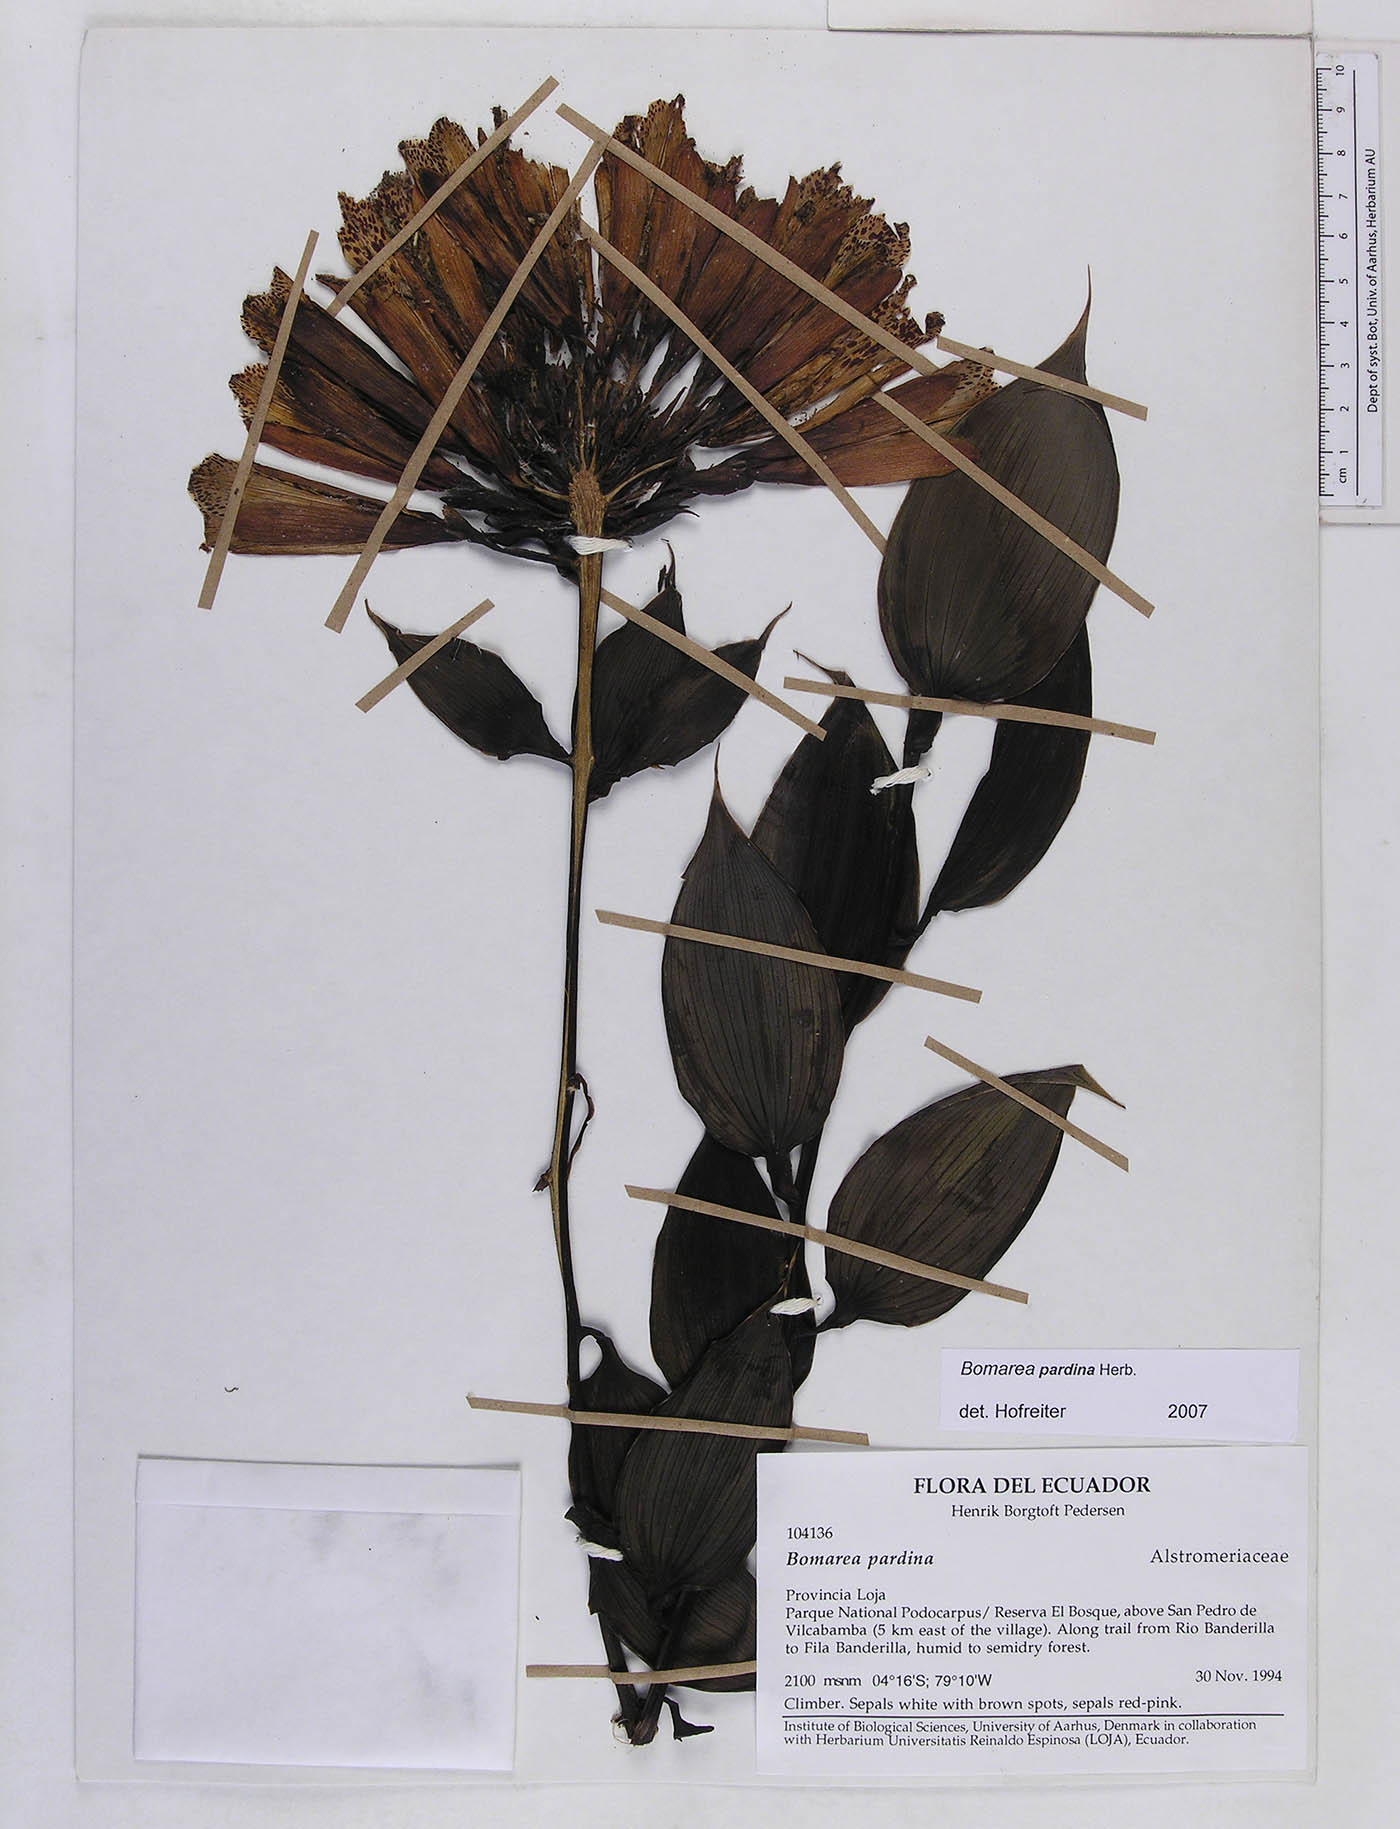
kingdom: Plantae
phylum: Tracheophyta
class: Liliopsida
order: Liliales
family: Alstroemeriaceae
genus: Bomarea
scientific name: Bomarea pardina
